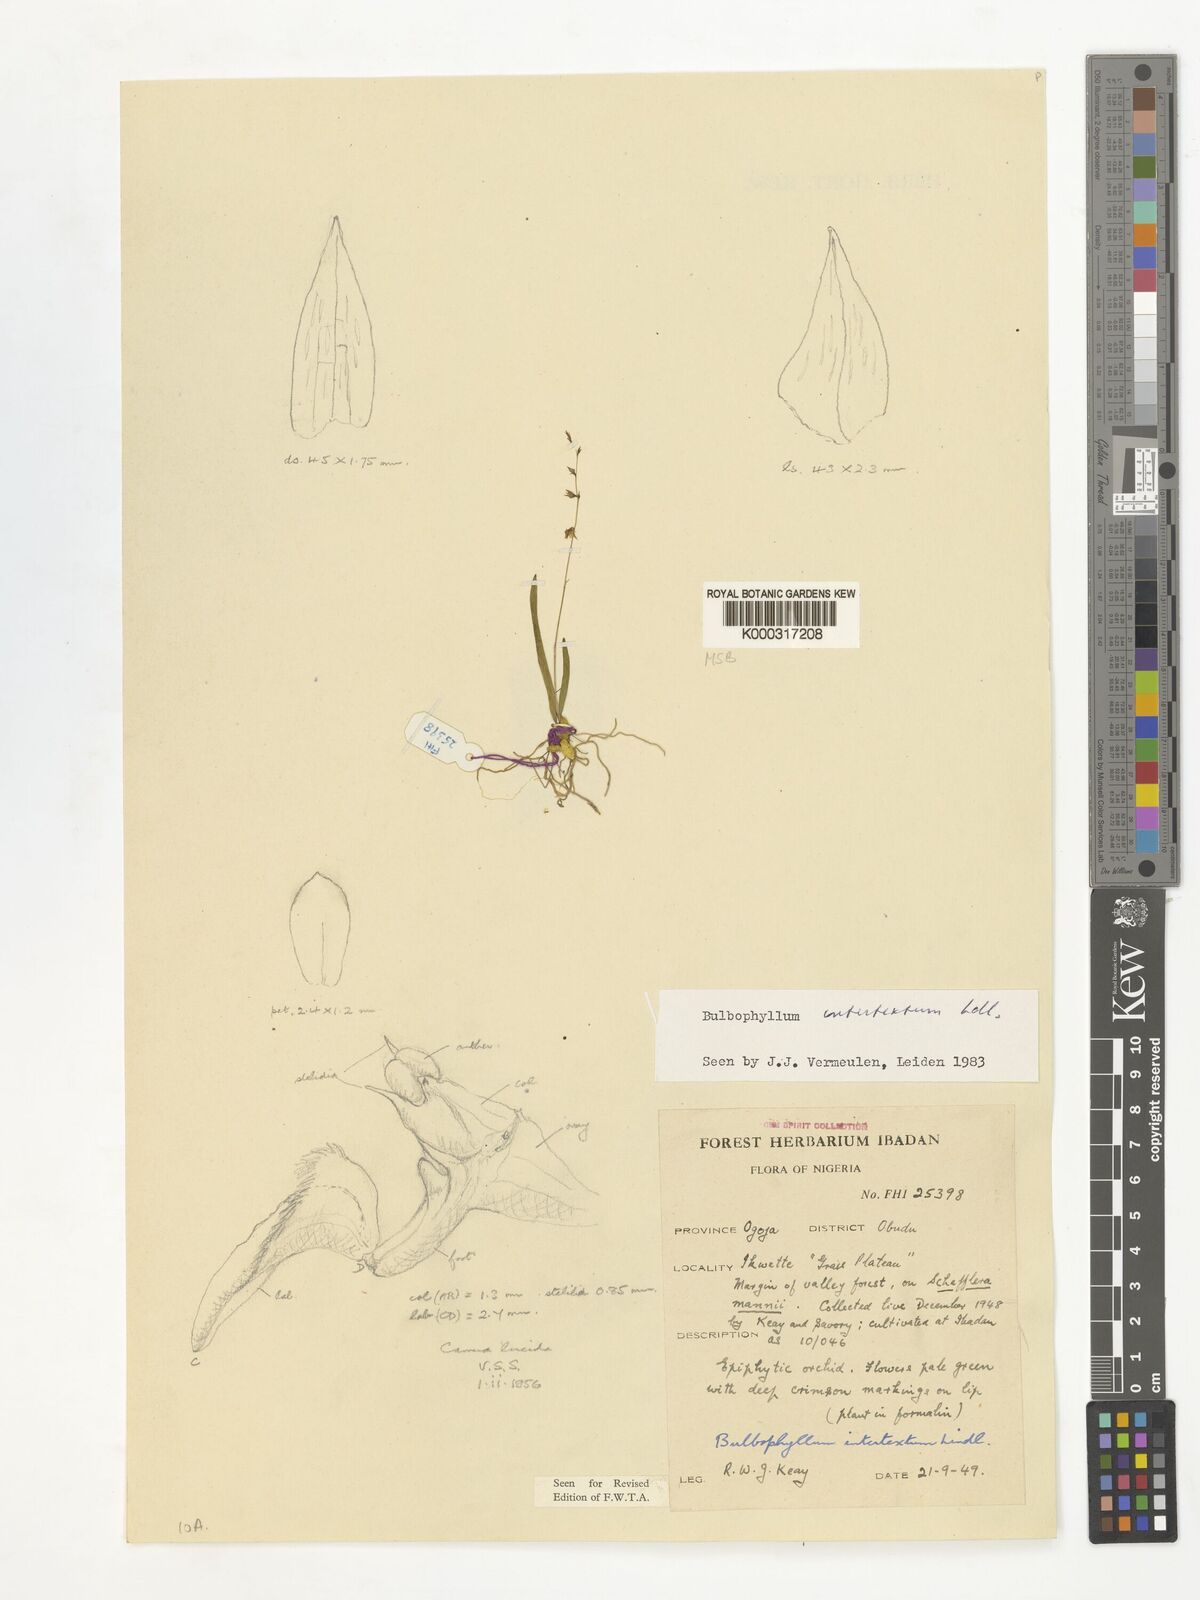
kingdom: Plantae
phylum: Tracheophyta
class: Liliopsida
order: Asparagales
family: Orchidaceae
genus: Bulbophyllum
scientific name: Bulbophyllum intertextum
